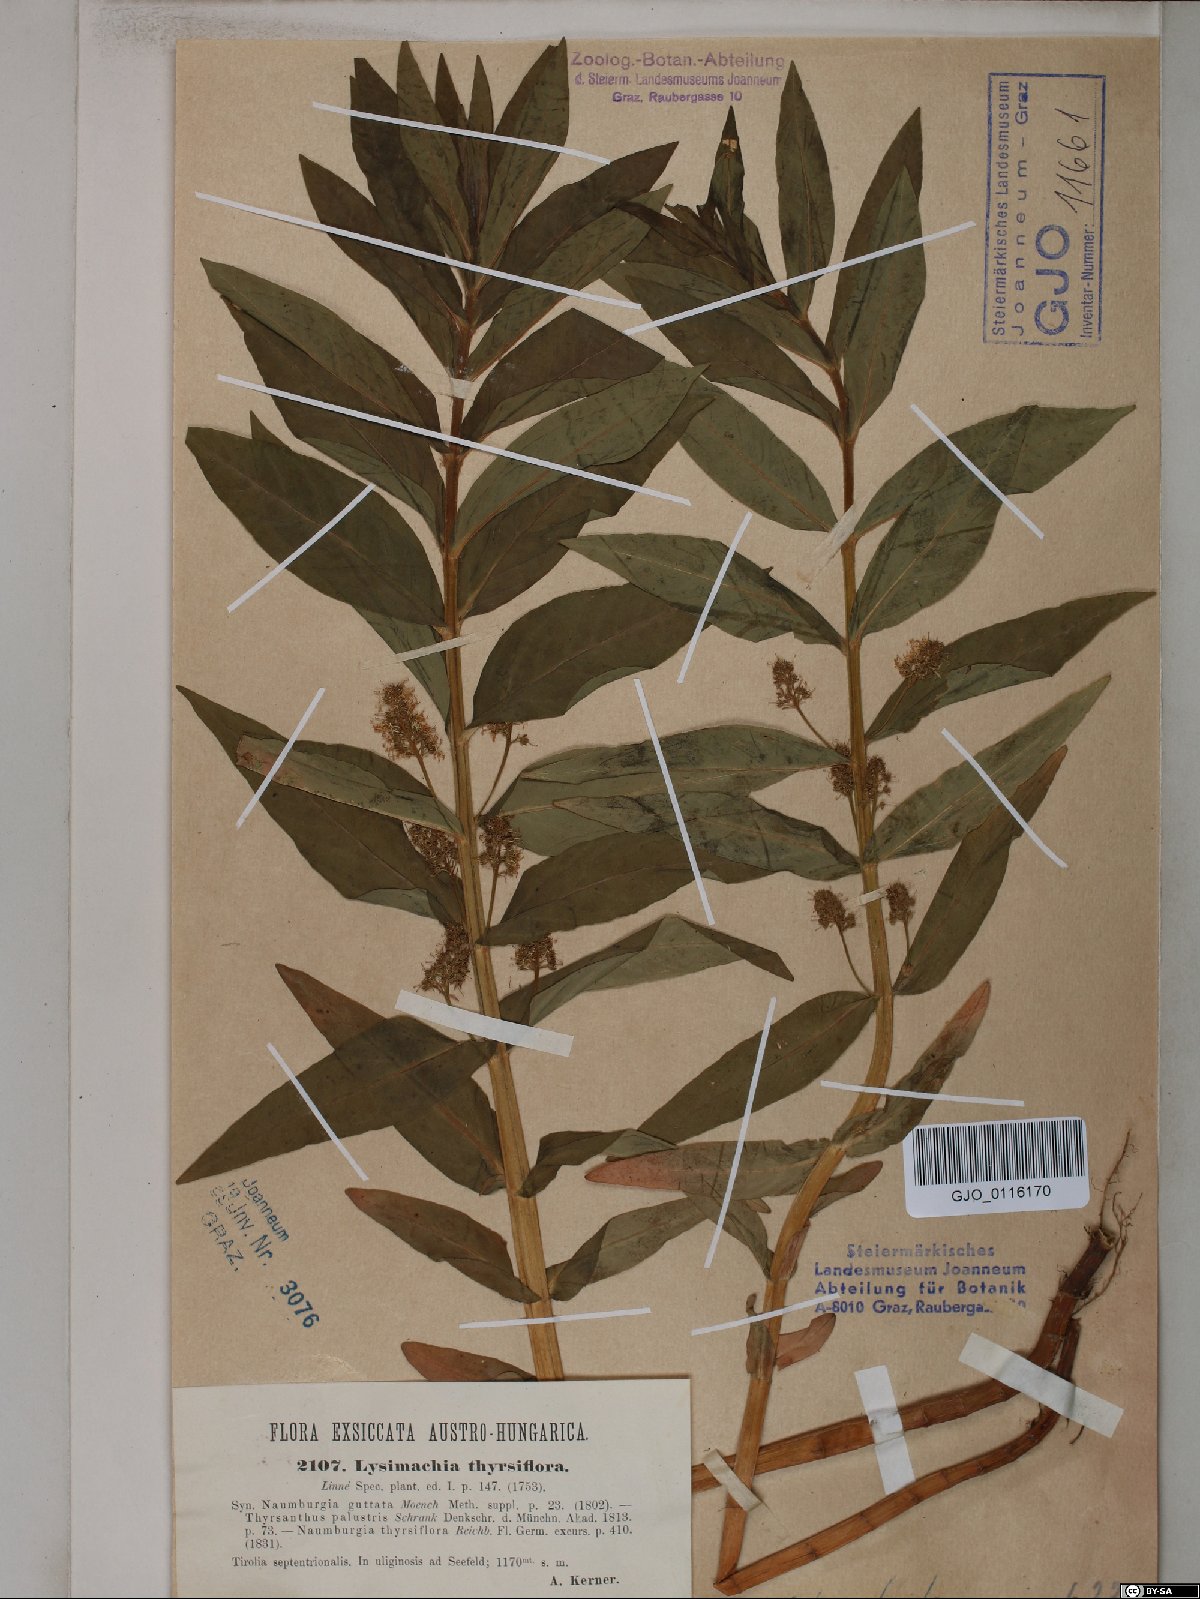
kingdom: Plantae
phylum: Tracheophyta
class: Magnoliopsida
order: Ericales
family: Primulaceae
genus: Lysimachia
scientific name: Lysimachia thyrsiflora
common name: Tufted loosestrife
